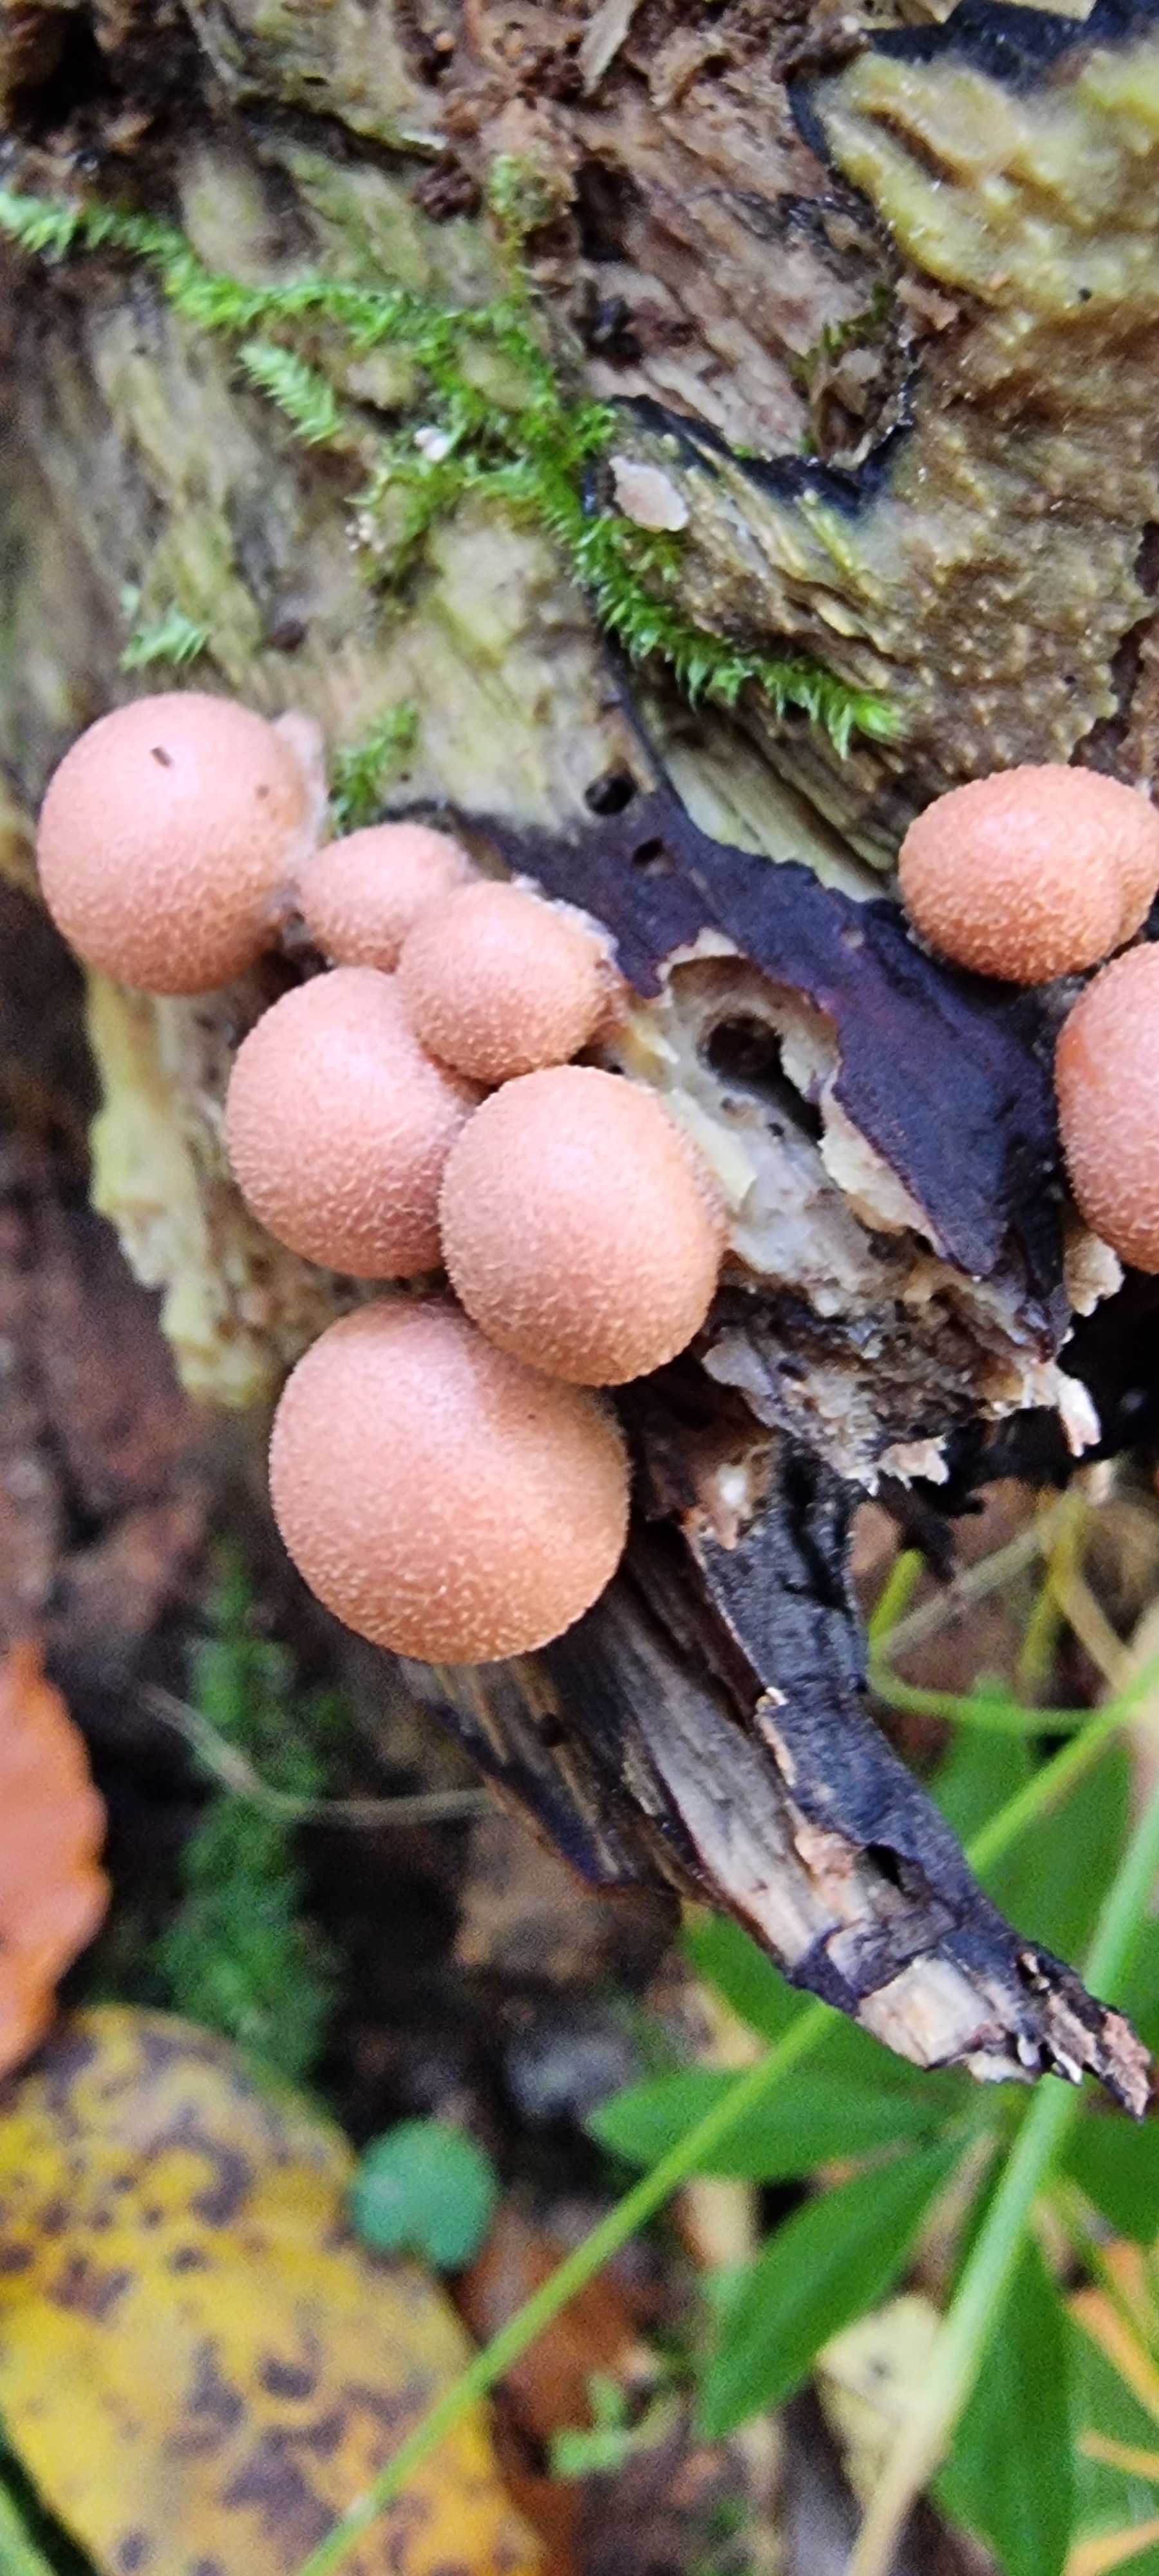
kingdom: Protozoa
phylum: Mycetozoa
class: Myxomycetes
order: Cribrariales
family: Tubiferaceae
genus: Lycogala
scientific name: Lycogala epidendrum
